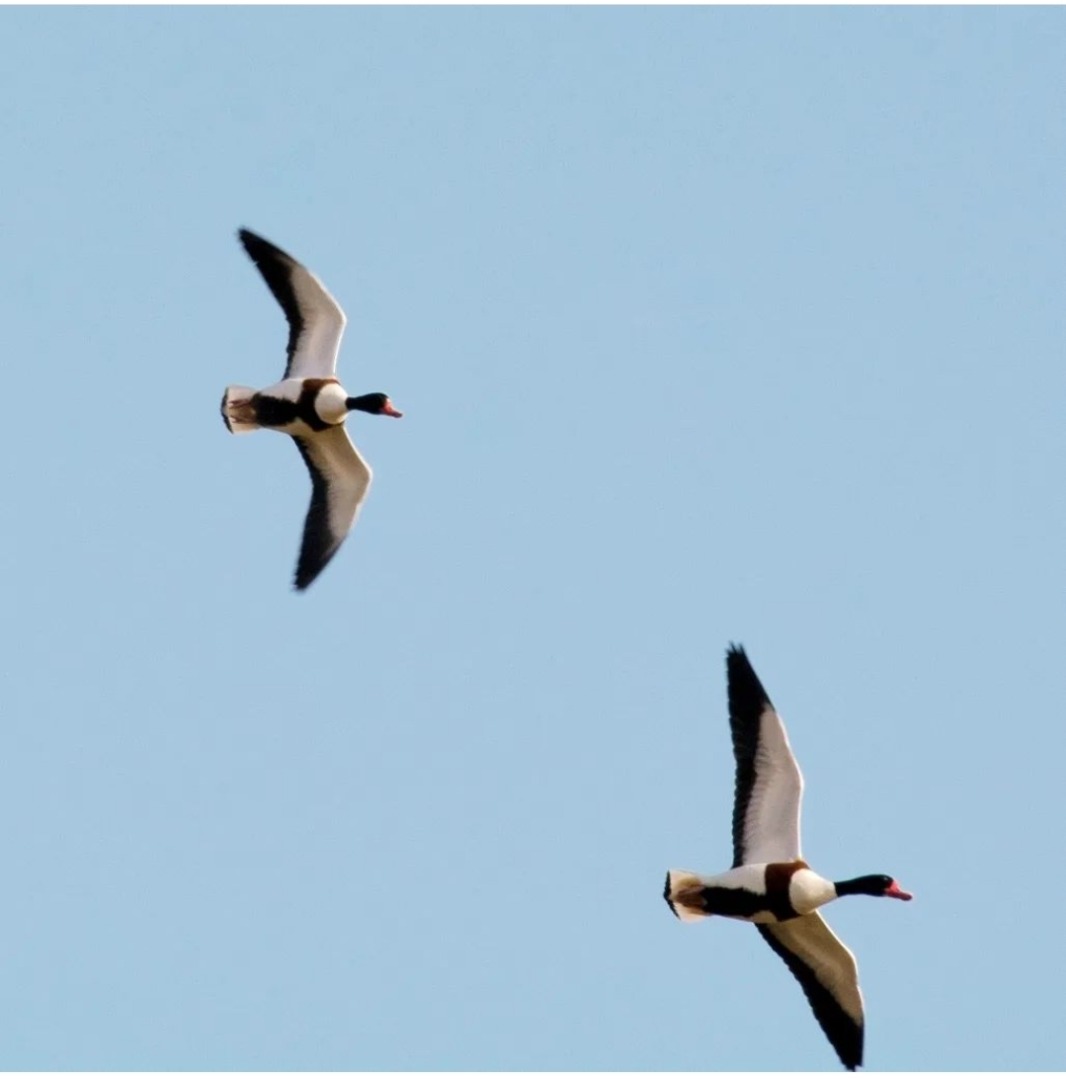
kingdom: Animalia
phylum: Chordata
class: Aves
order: Anseriformes
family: Anatidae
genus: Tadorna
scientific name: Tadorna tadorna
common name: Gravand
